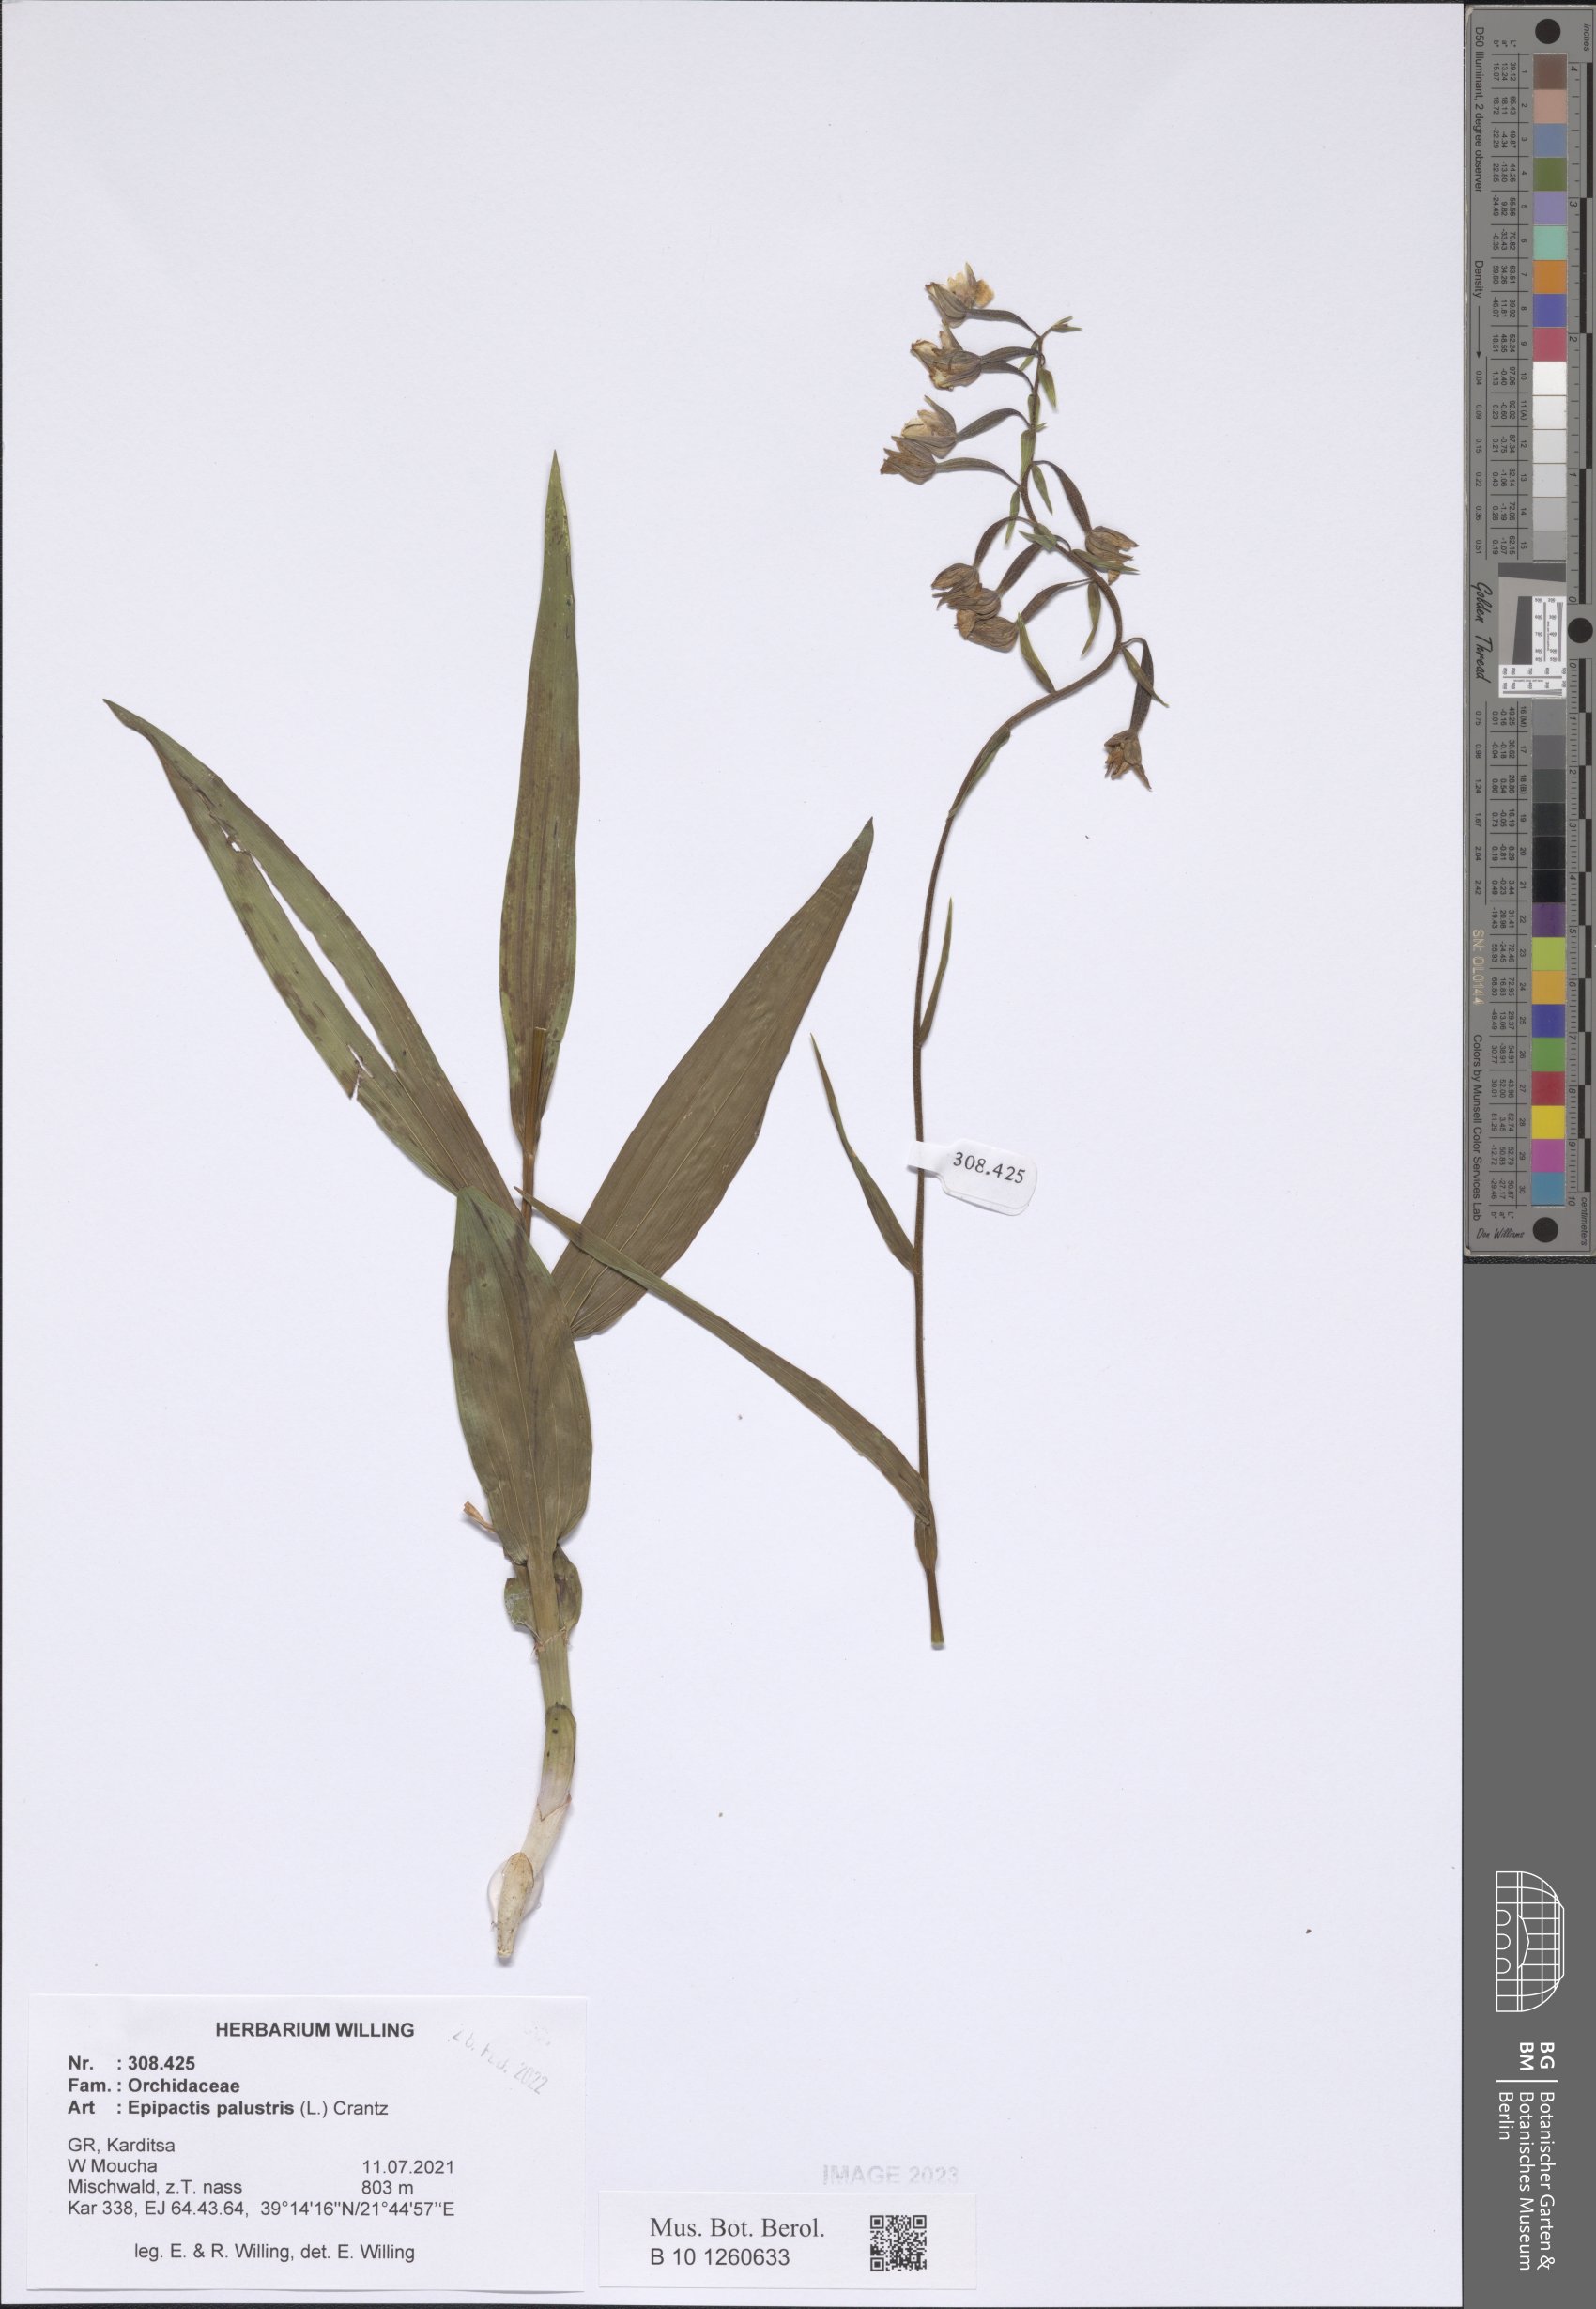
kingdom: Plantae
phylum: Tracheophyta
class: Liliopsida
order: Asparagales
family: Orchidaceae
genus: Epipactis
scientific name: Epipactis palustris
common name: Marsh helleborine
